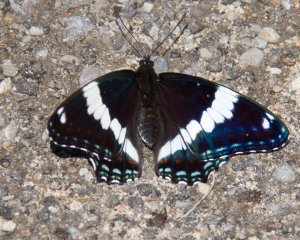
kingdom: Animalia
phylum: Arthropoda
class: Insecta
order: Lepidoptera
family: Nymphalidae
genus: Limenitis
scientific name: Limenitis arthemis
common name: Red-spotted Admiral
